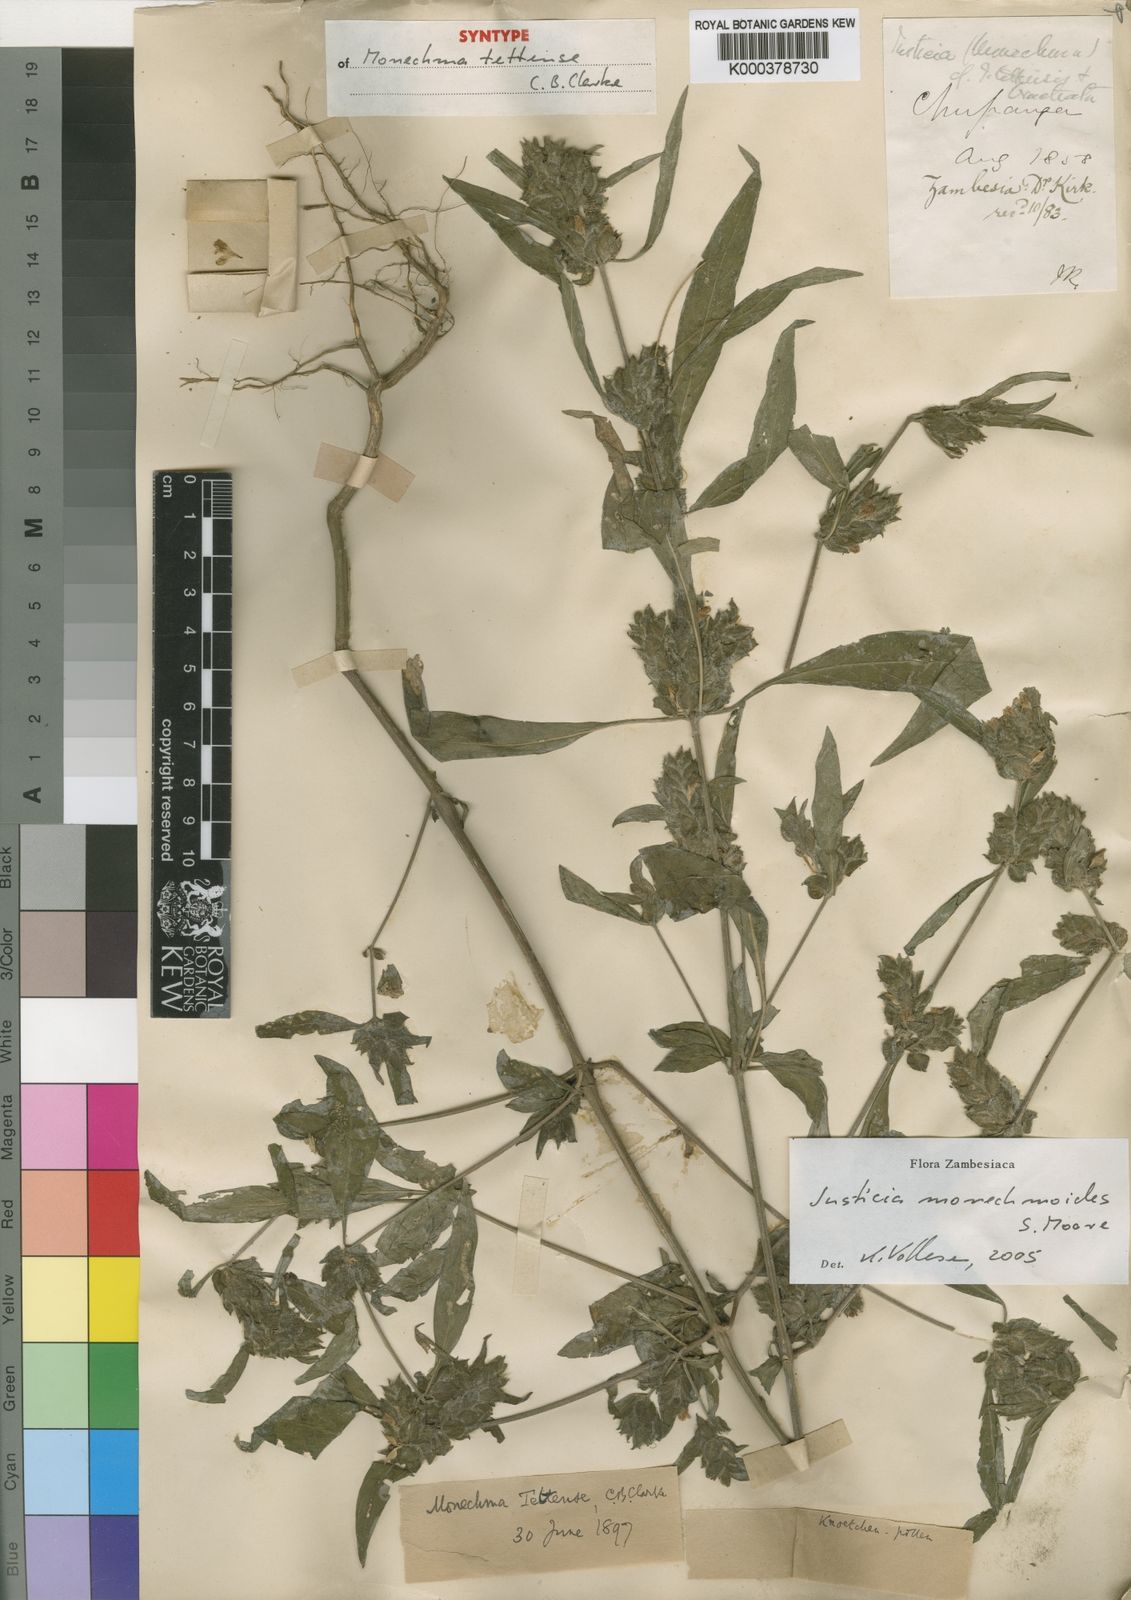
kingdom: Plantae
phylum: Tracheophyta
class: Magnoliopsida
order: Lamiales
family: Acanthaceae
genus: Monechma
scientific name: Monechma monechmoides
